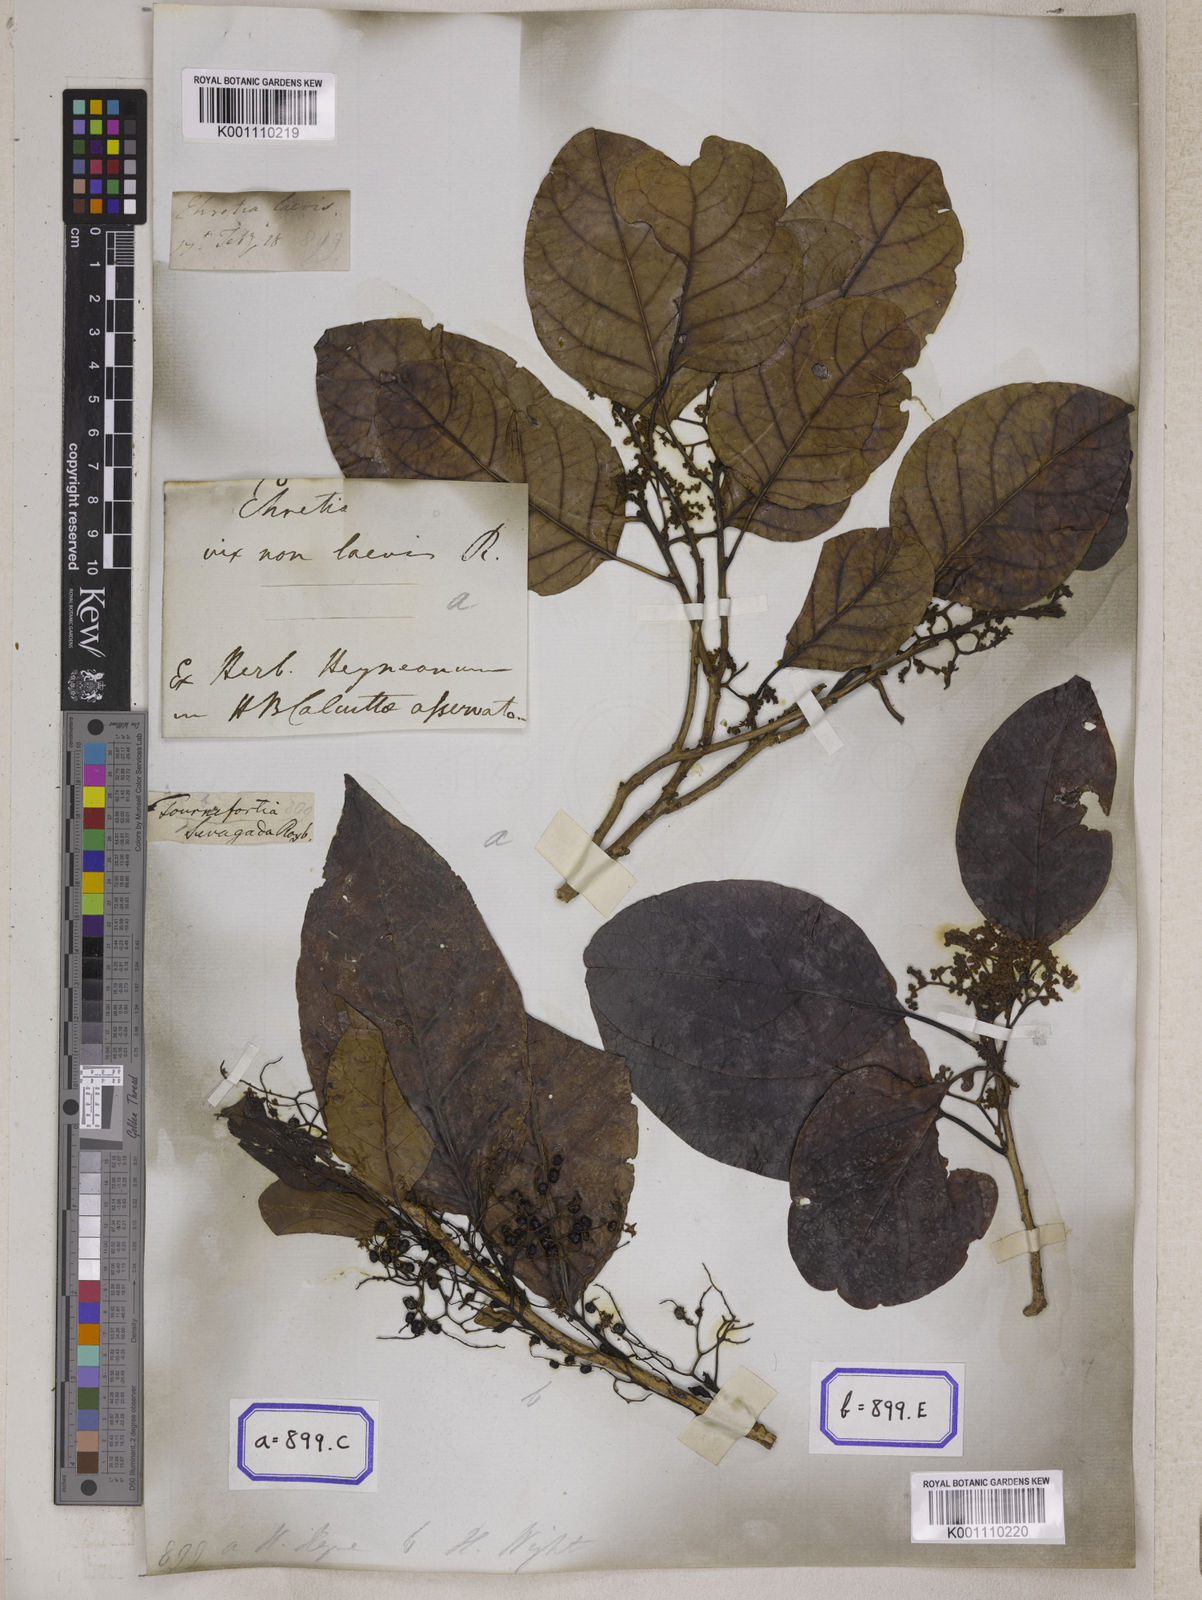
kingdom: Plantae
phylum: Tracheophyta
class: Magnoliopsida
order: Boraginales
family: Ehretiaceae
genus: Ehretia
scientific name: Ehretia laevis
